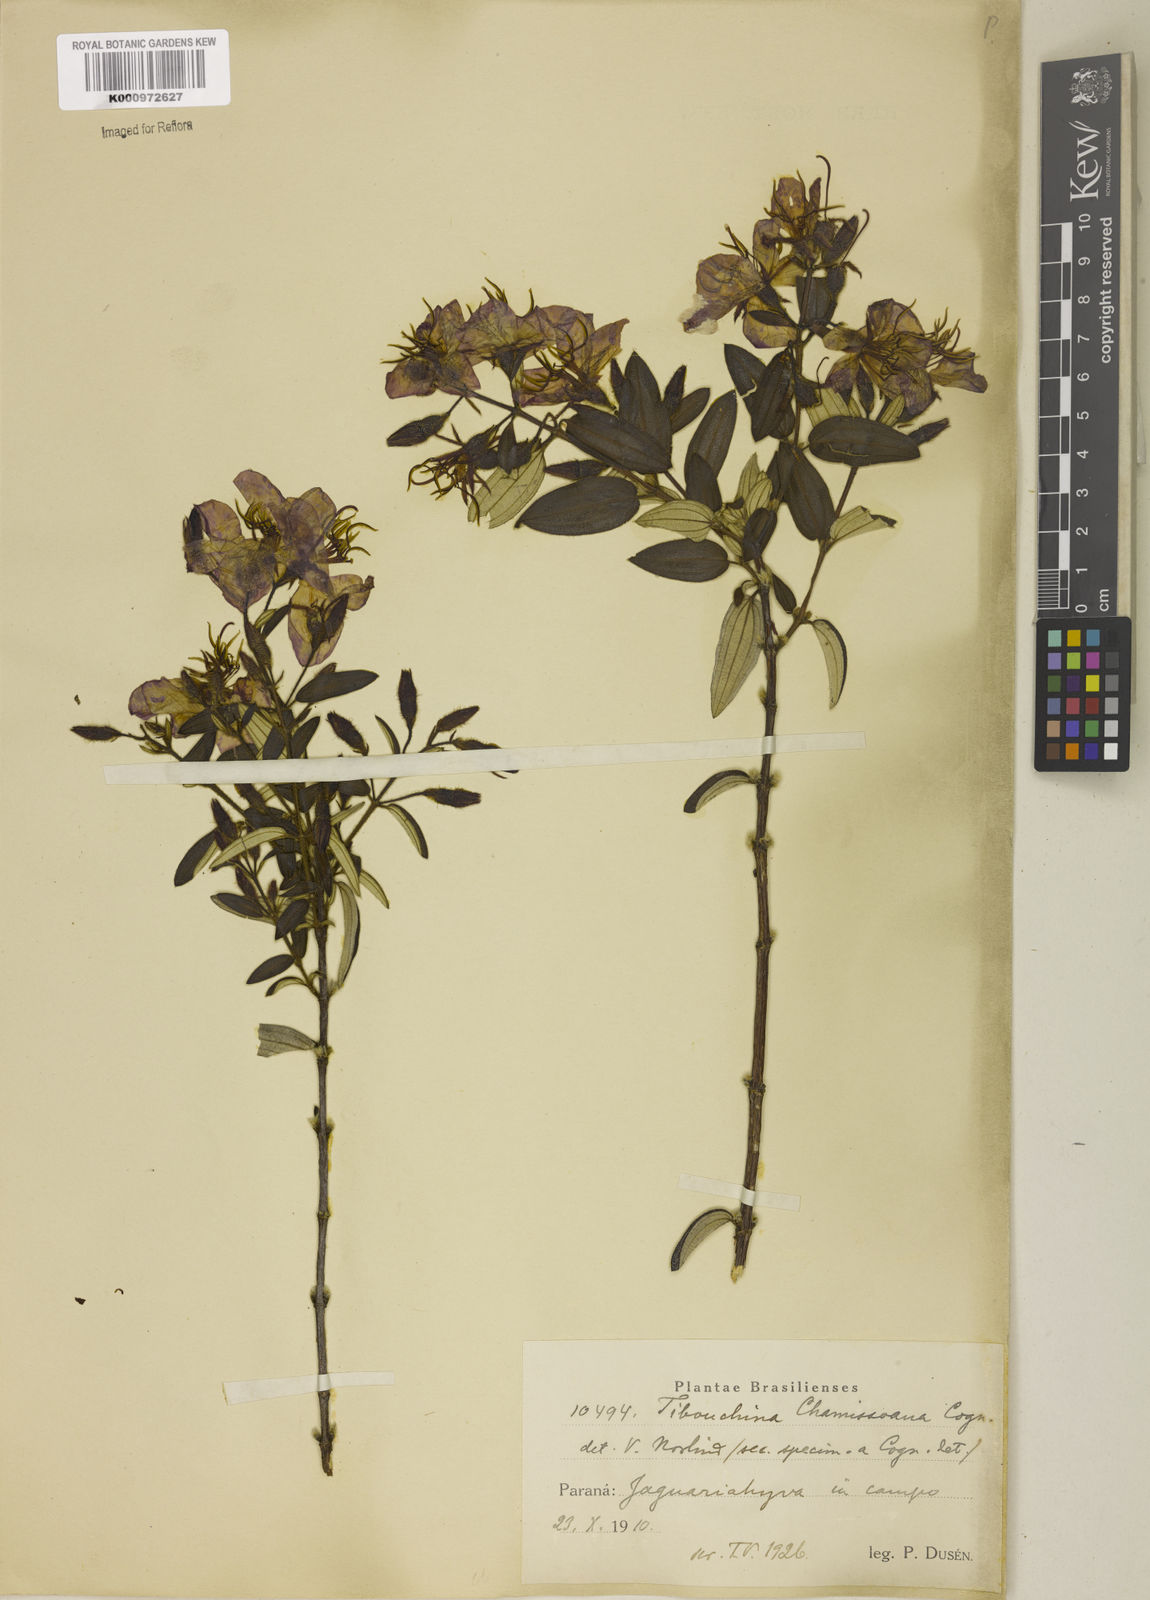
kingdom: Plantae
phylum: Tracheophyta
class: Magnoliopsida
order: Myrtales
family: Melastomataceae
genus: Pleroma
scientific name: Pleroma velutinum
